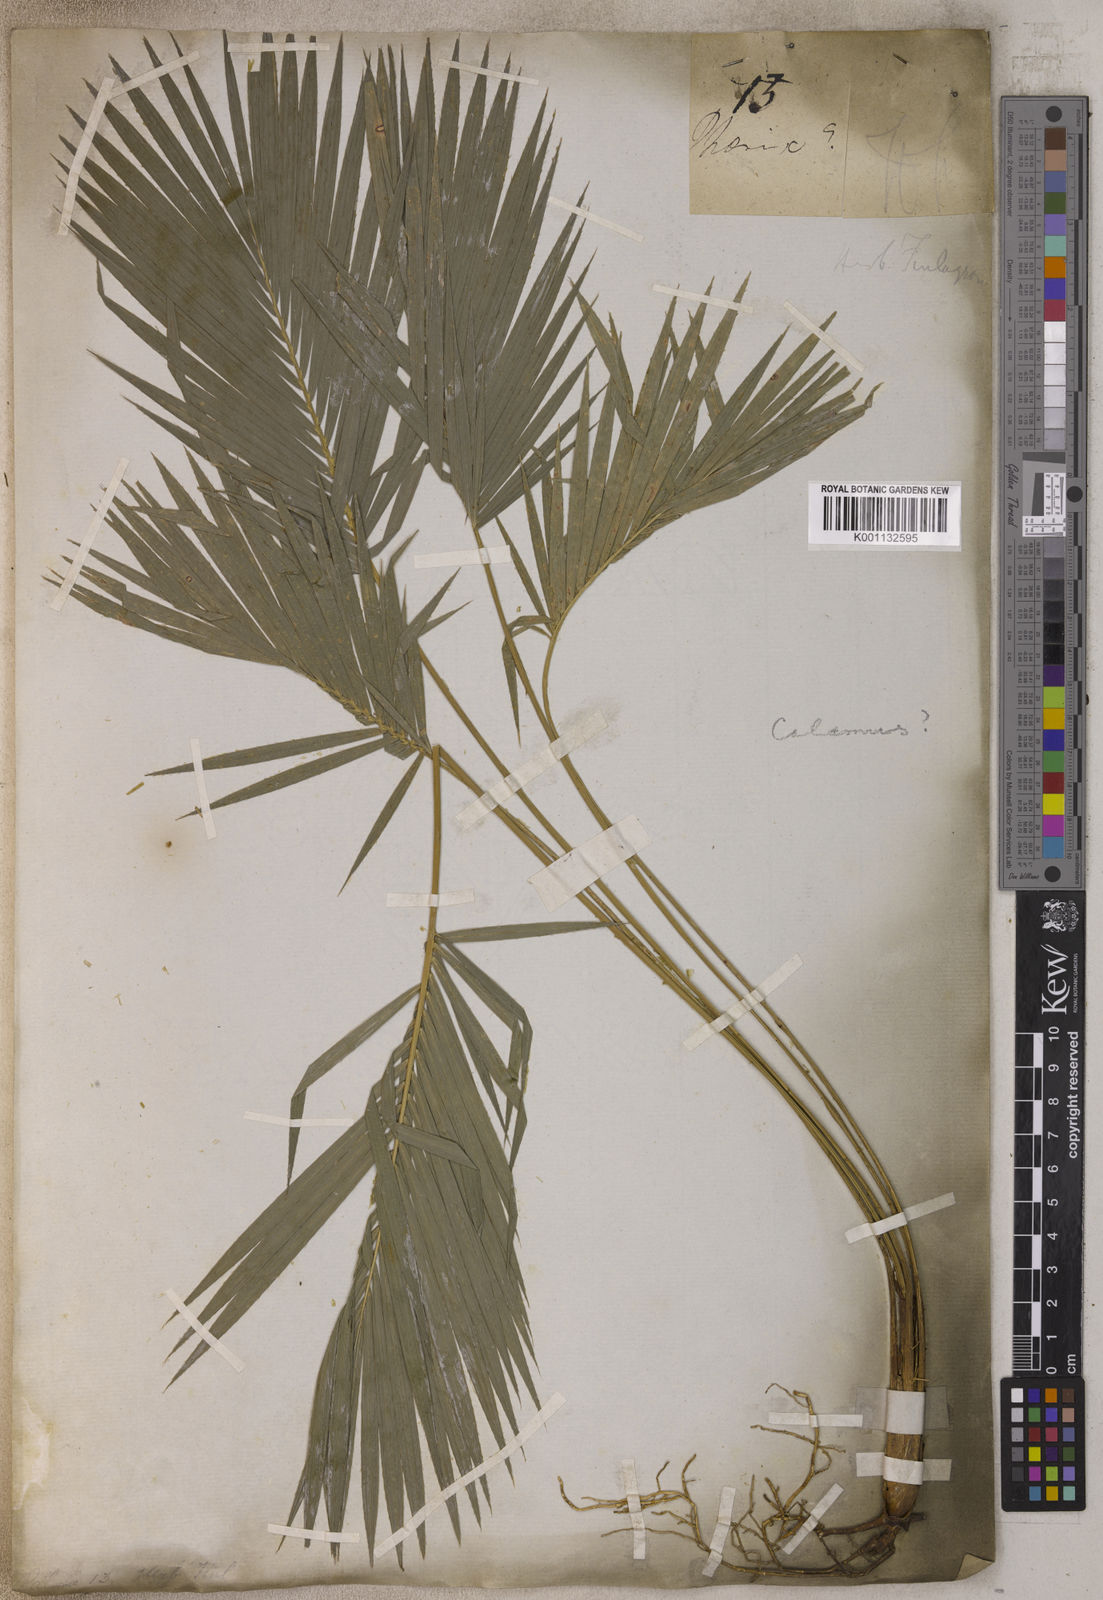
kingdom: Plantae
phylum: Tracheophyta
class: Liliopsida
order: Arecales
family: Arecaceae
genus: Calamus
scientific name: Calamus
